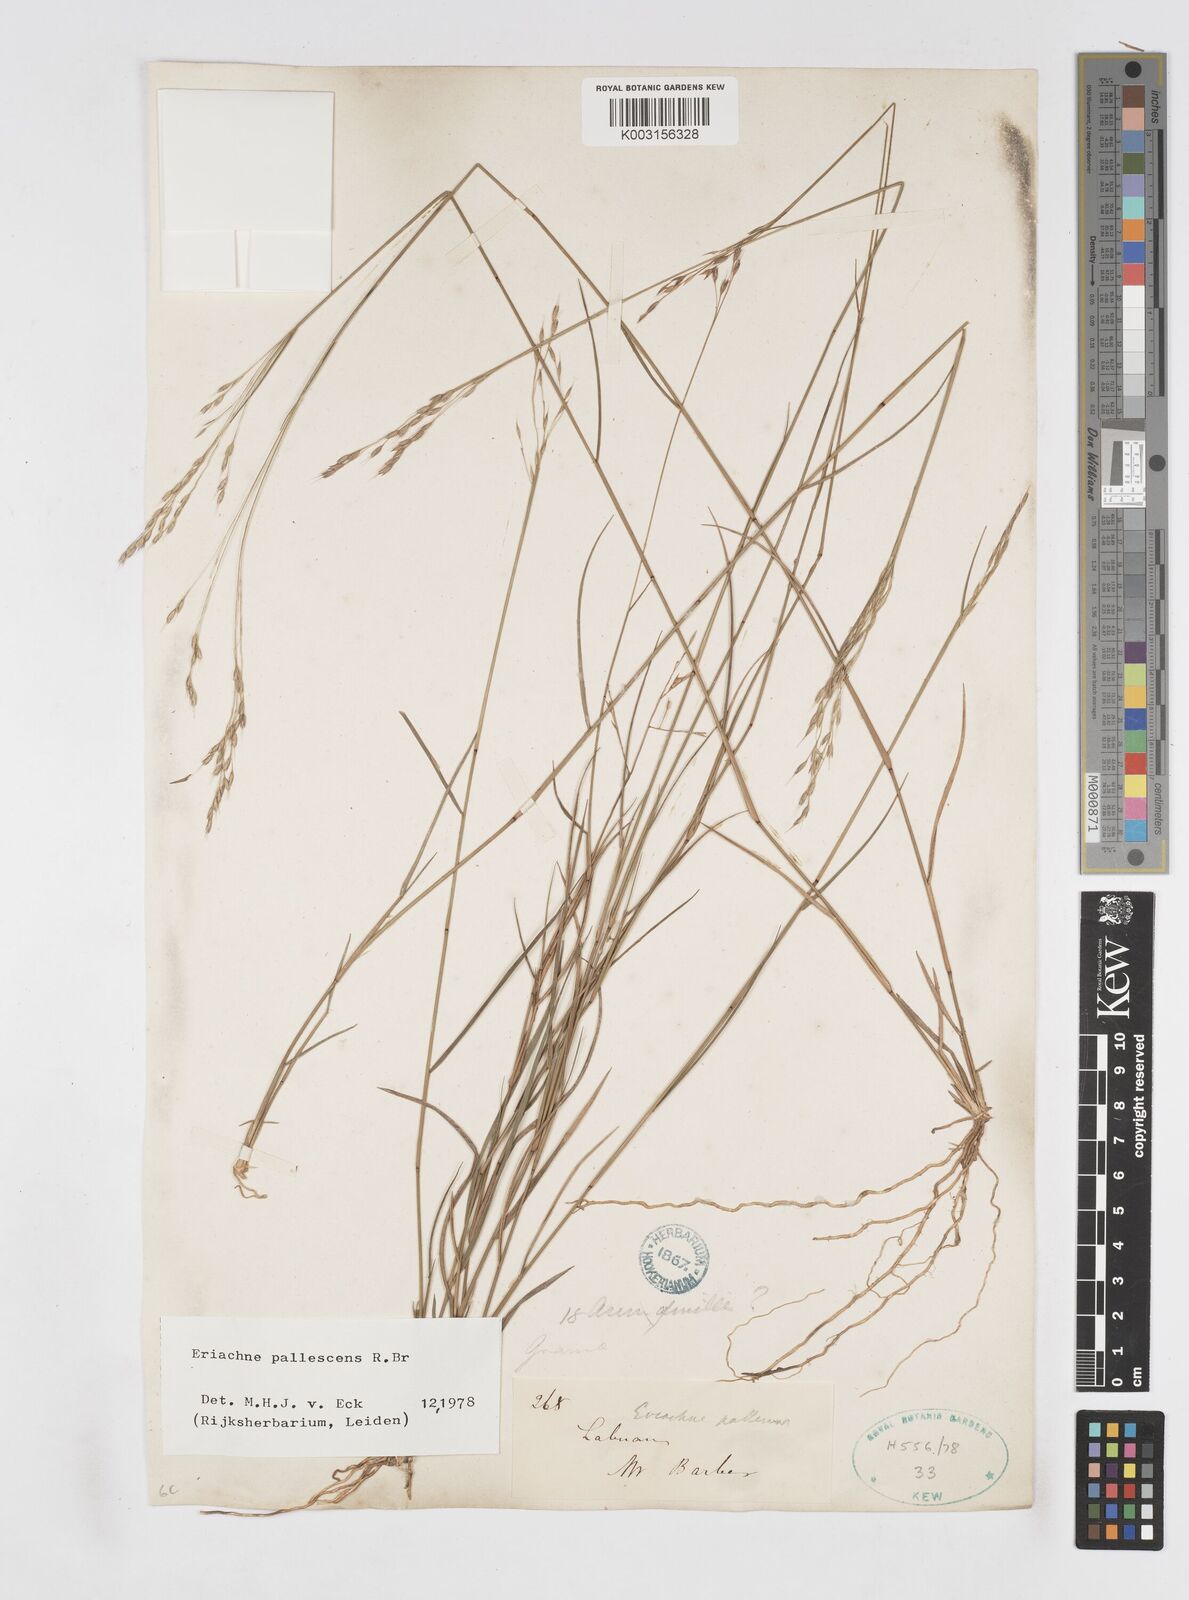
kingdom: Plantae
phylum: Tracheophyta
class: Liliopsida
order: Poales
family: Poaceae
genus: Eriachne
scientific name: Eriachne pallescens
